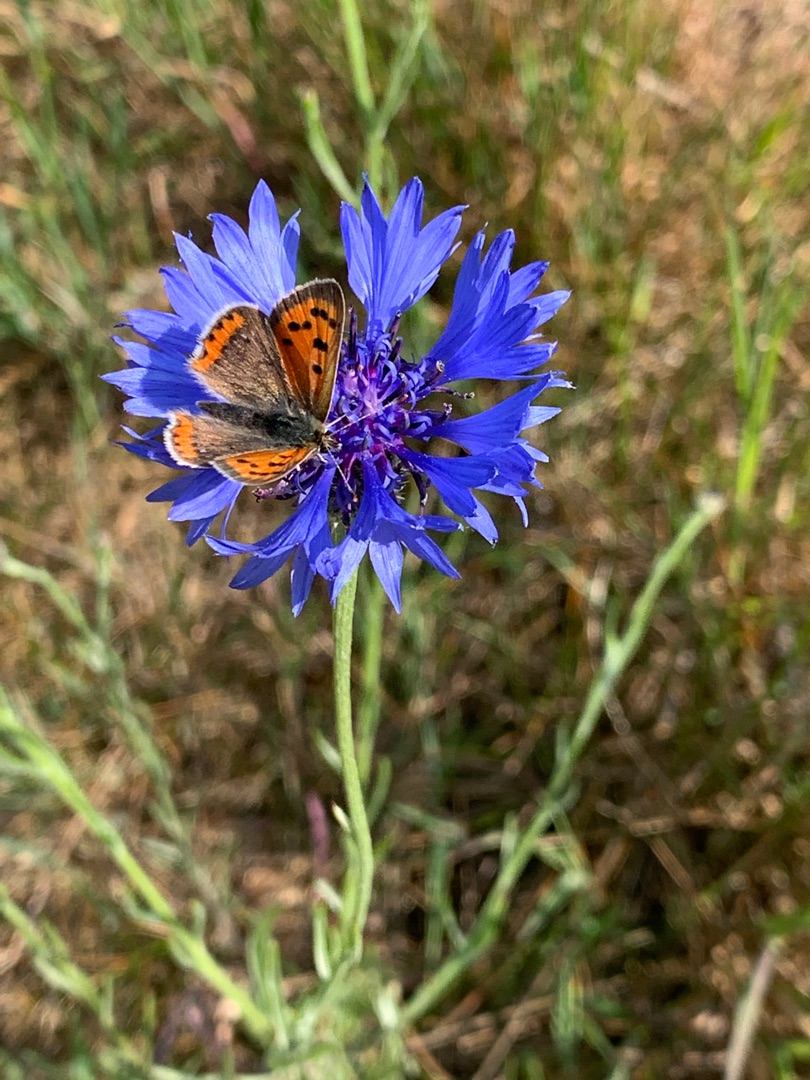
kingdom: Animalia
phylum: Arthropoda
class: Insecta
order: Lepidoptera
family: Lycaenidae
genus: Lycaena
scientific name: Lycaena phlaeas
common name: Lille ildfugl
